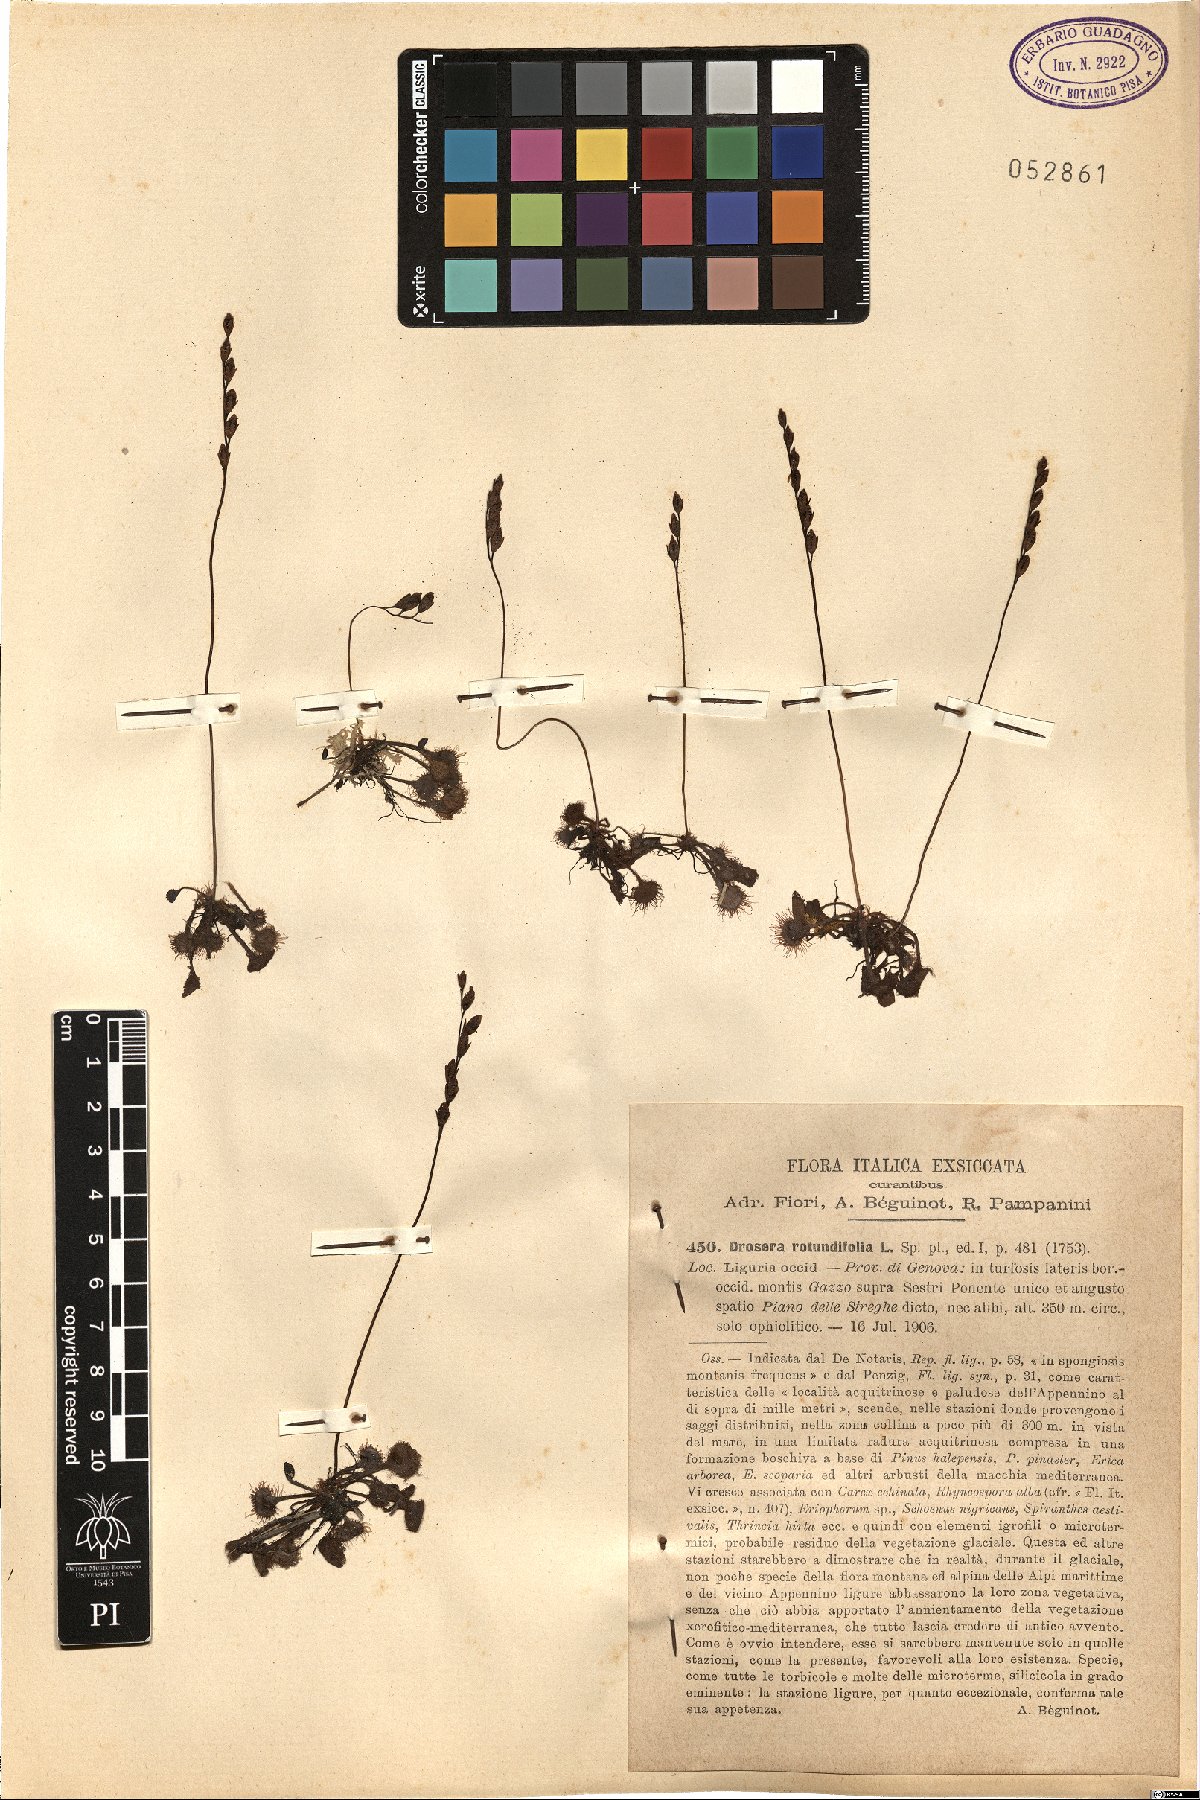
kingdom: Plantae
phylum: Tracheophyta
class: Magnoliopsida
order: Caryophyllales
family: Droseraceae
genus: Drosera
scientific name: Drosera rotundifolia
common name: Round-leaved sundew
